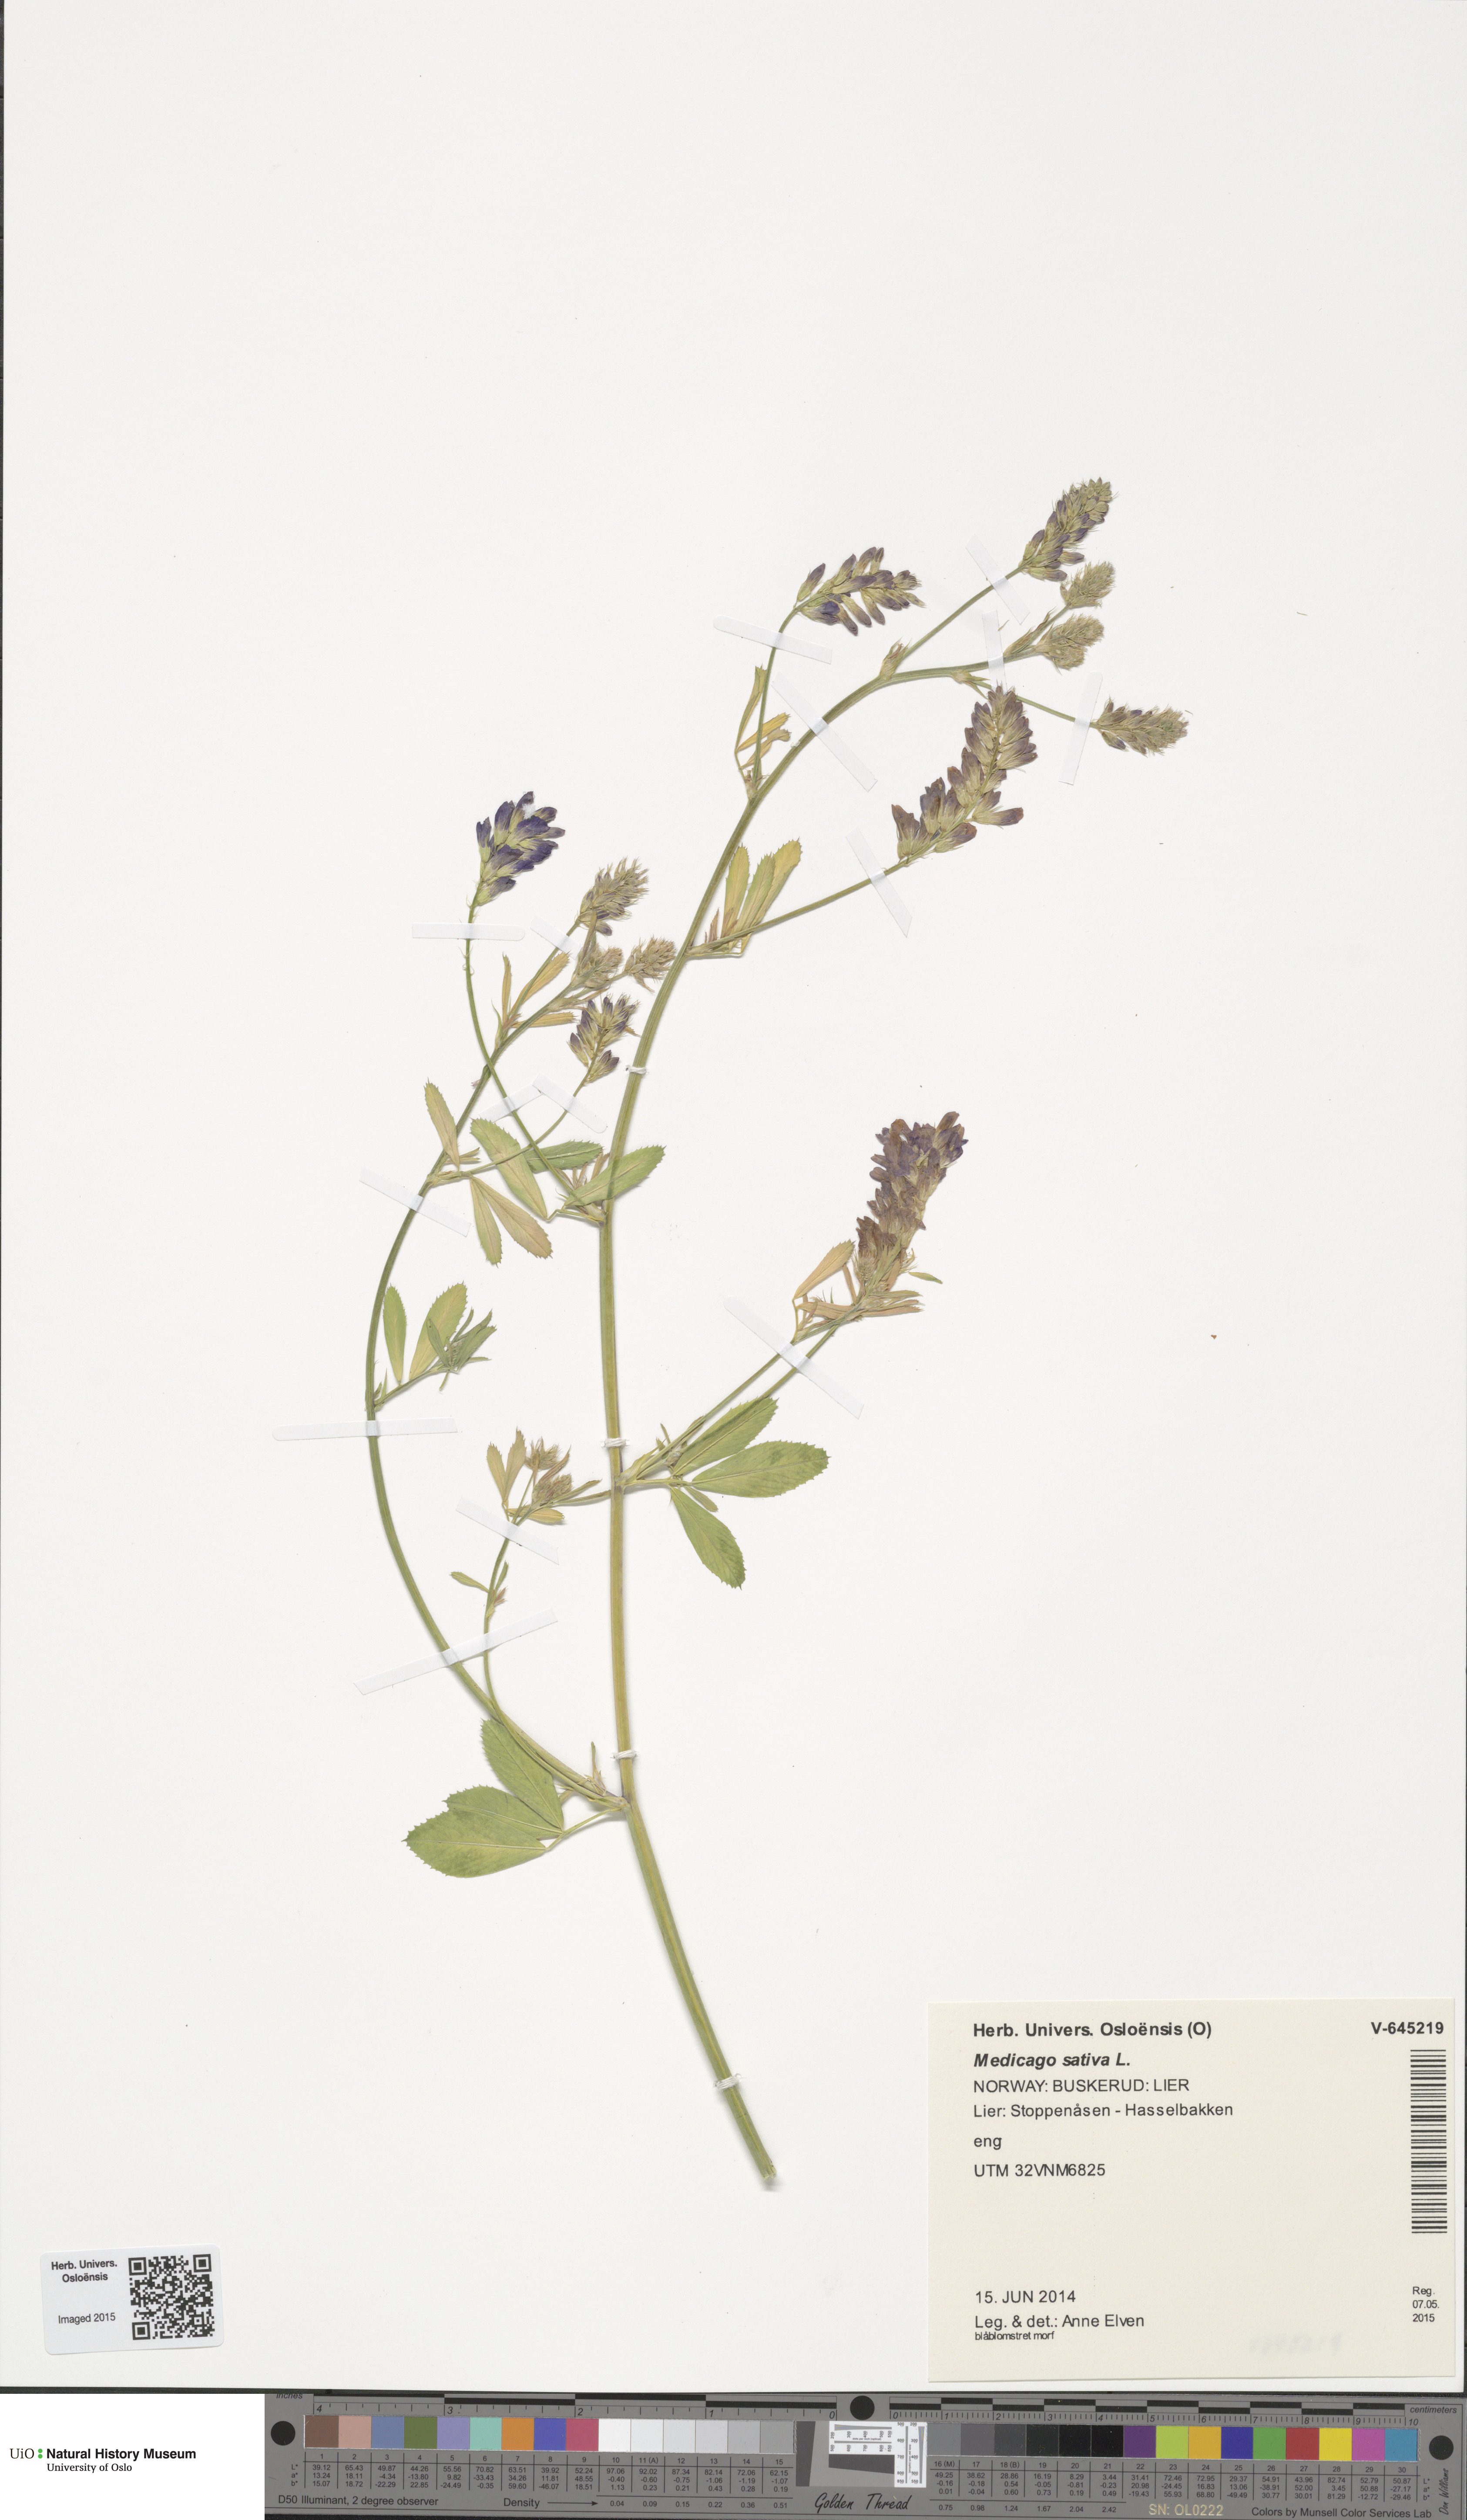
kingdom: Plantae
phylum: Tracheophyta
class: Magnoliopsida
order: Fabales
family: Fabaceae
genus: Medicago
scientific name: Medicago sativa
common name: Alfalfa
